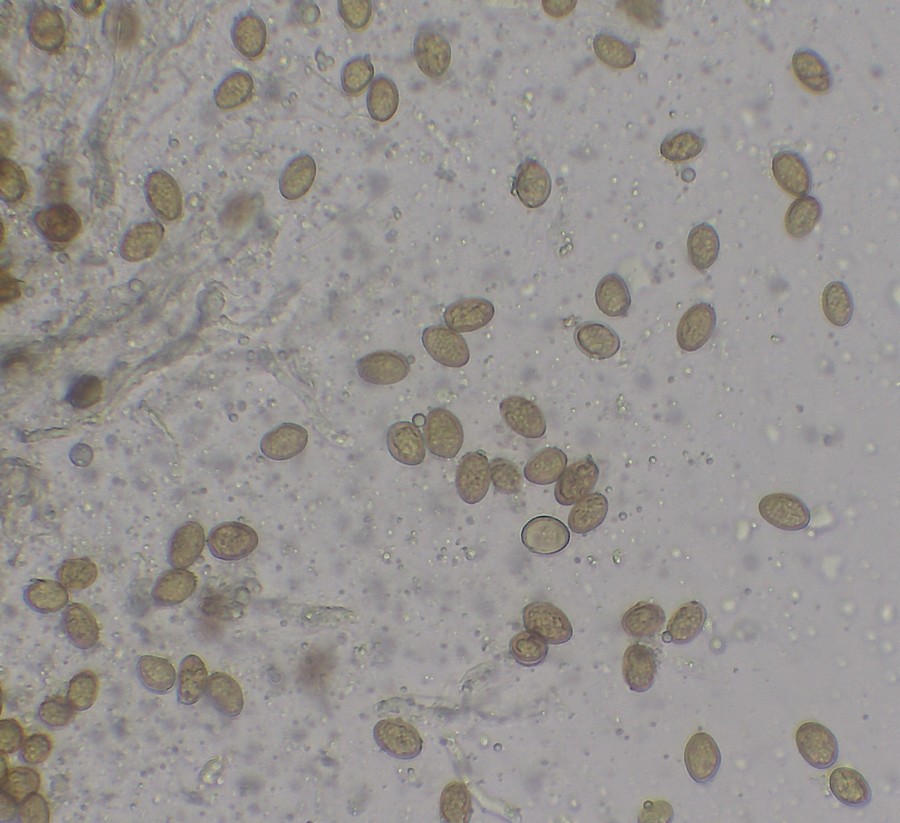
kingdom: Fungi
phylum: Basidiomycota
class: Agaricomycetes
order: Boletales
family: Coniophoraceae
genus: Coniophora
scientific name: Coniophora puteana
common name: gul tømmersvamp
